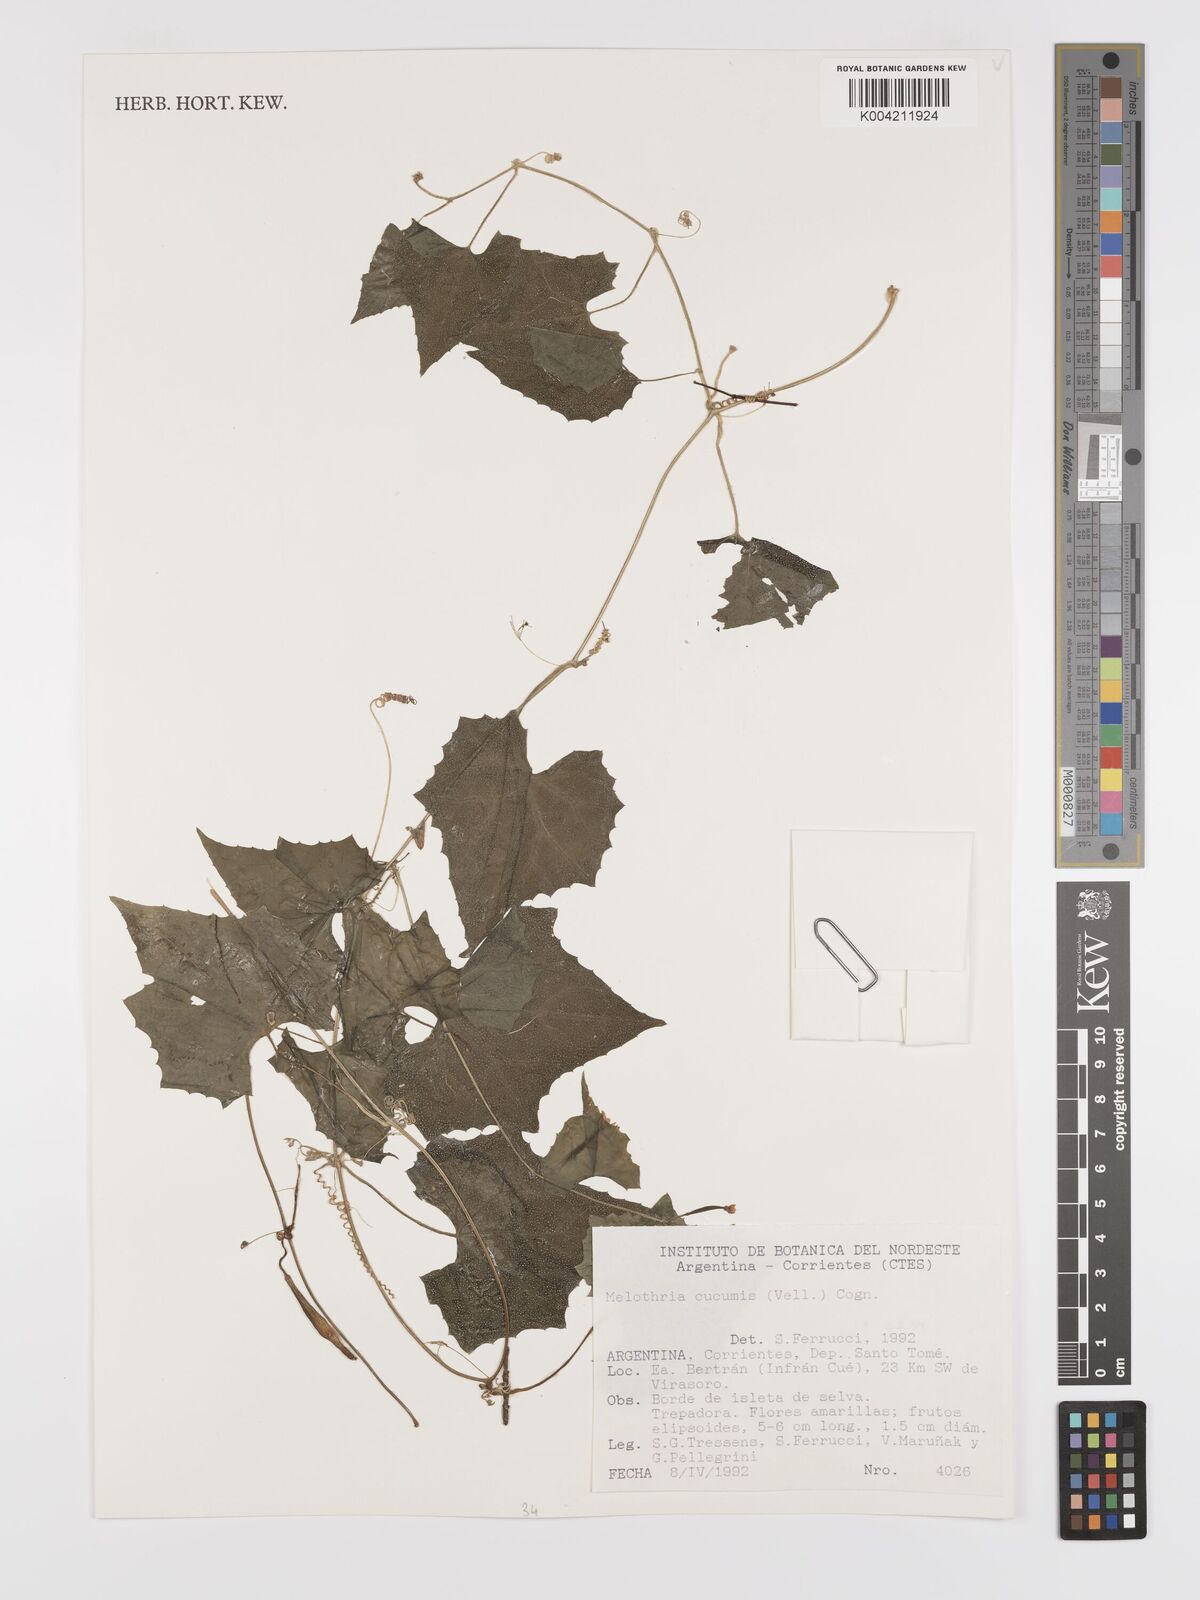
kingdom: Plantae
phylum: Tracheophyta
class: Magnoliopsida
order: Cucurbitales
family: Cucurbitaceae
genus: Melothria
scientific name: Melothria cucumis
